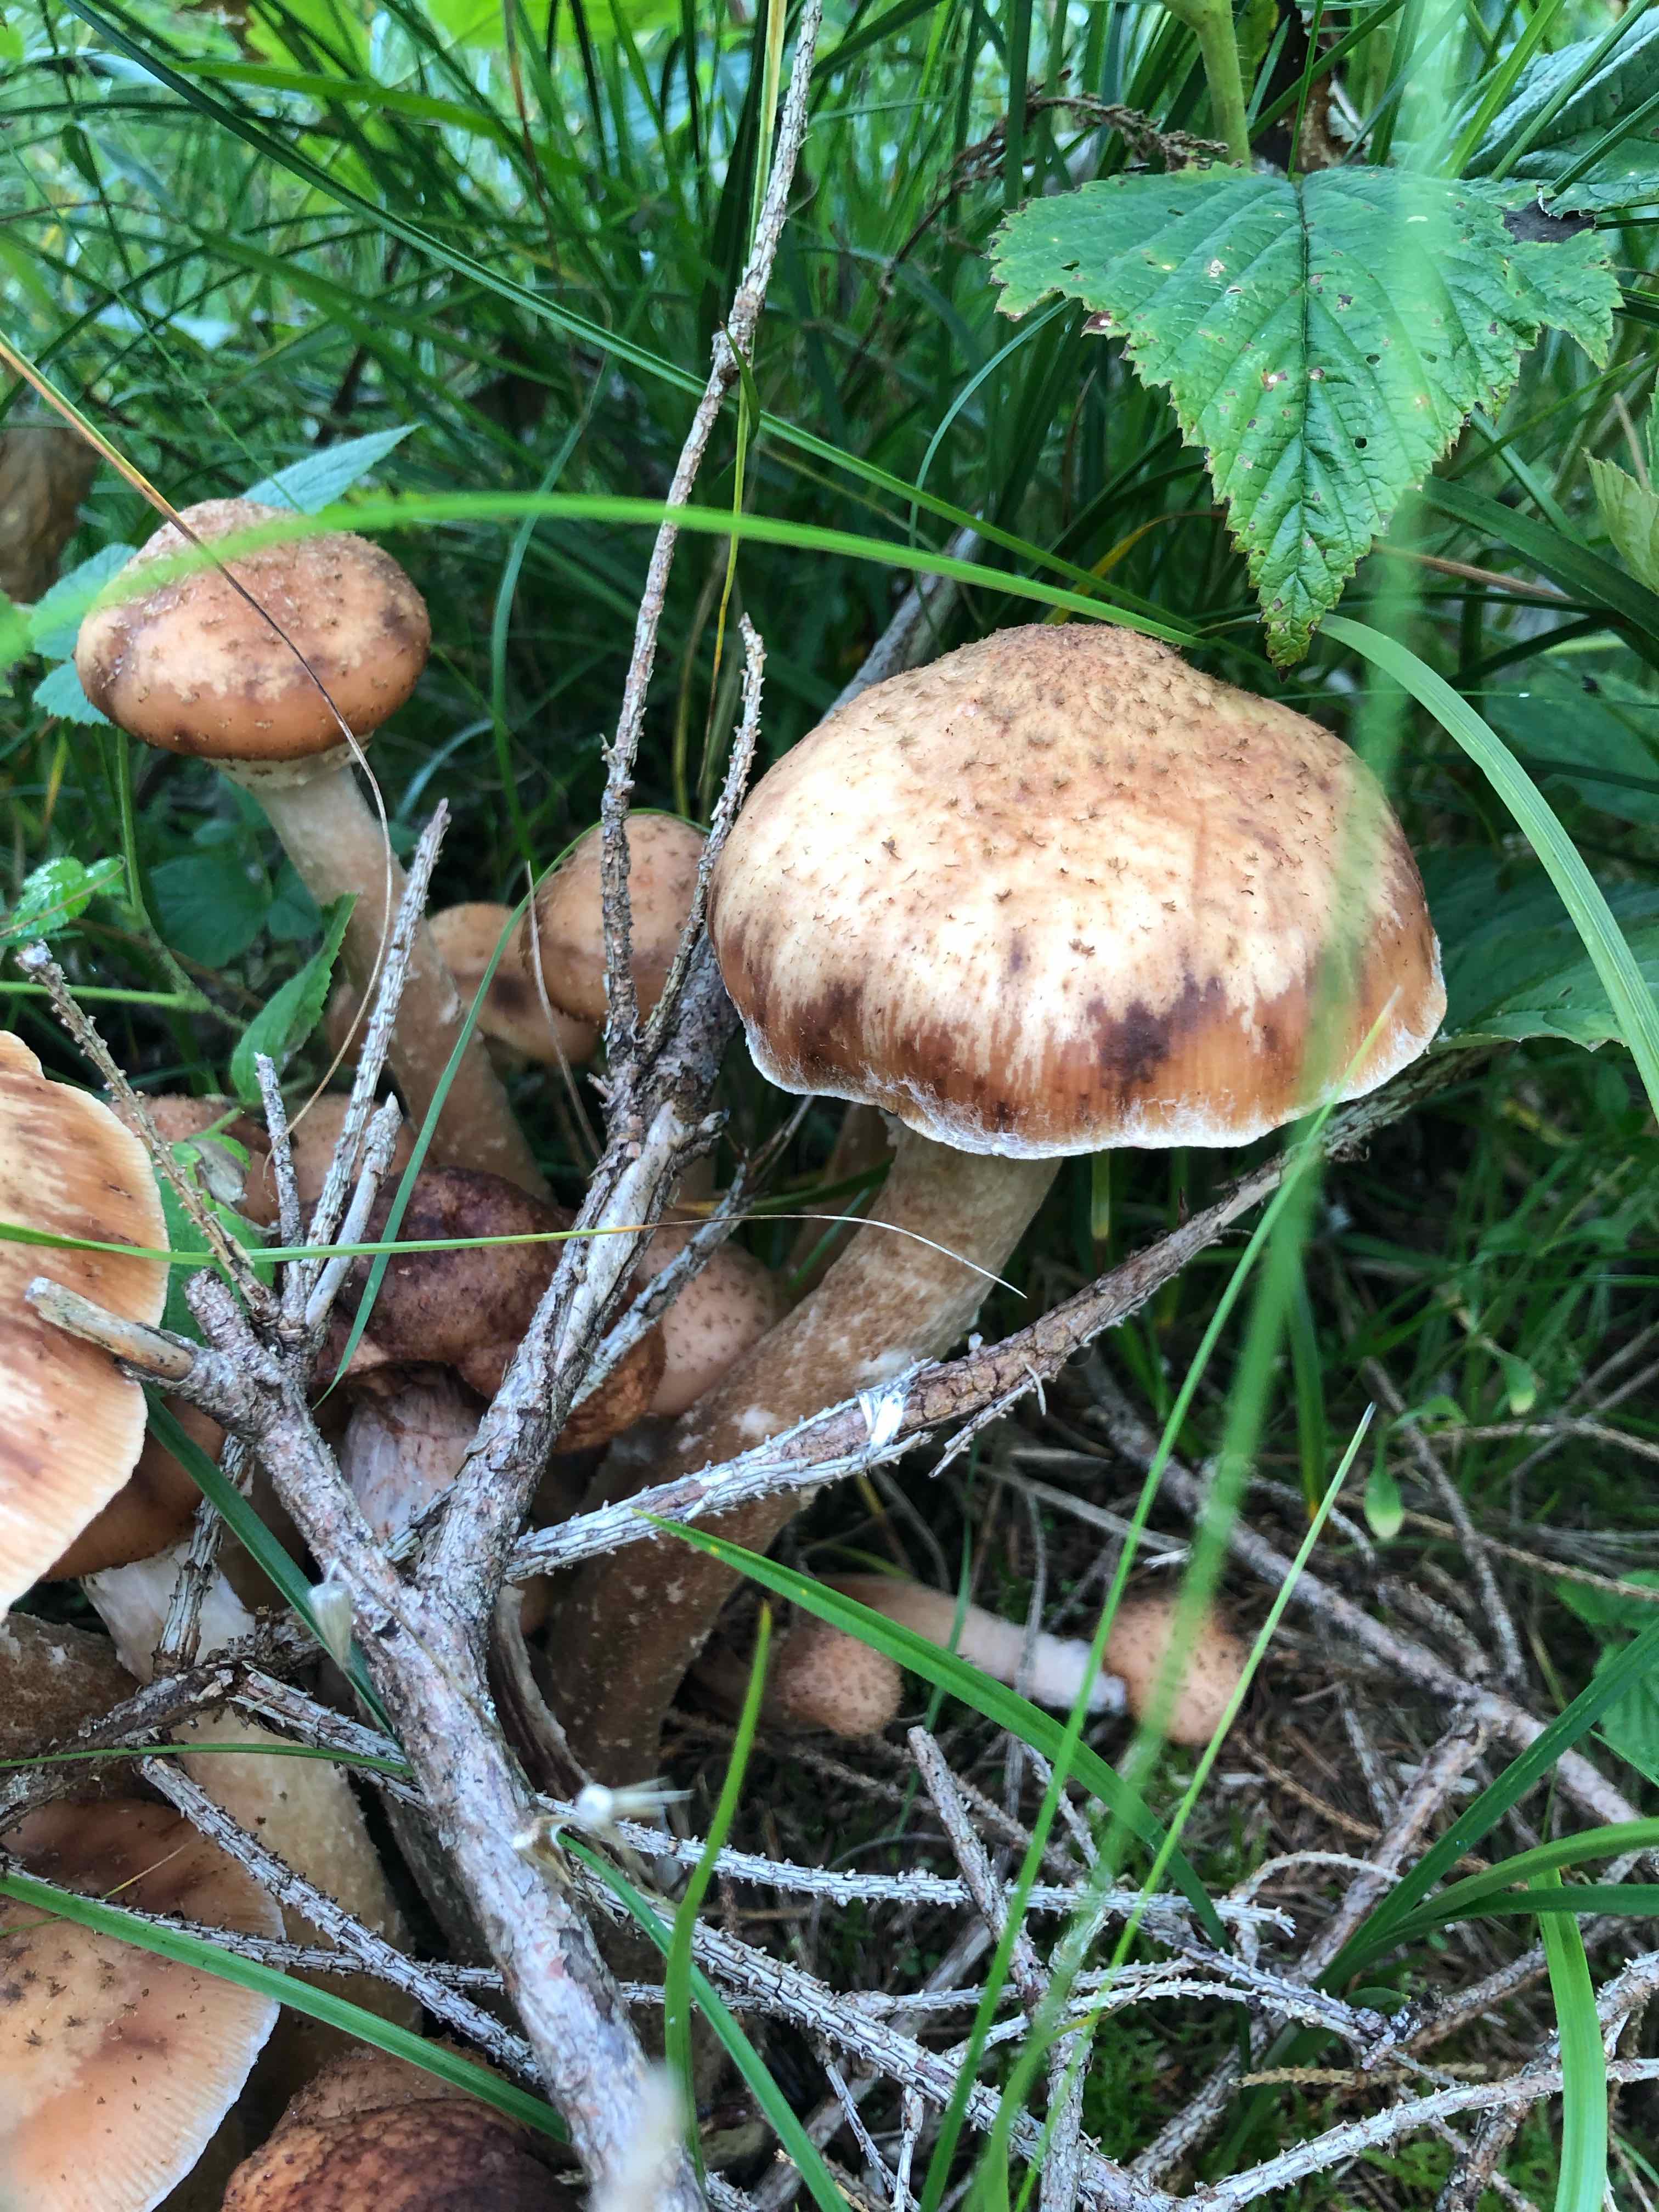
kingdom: Fungi
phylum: Basidiomycota
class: Agaricomycetes
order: Agaricales
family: Physalacriaceae
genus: Armillaria
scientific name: Armillaria ostoyae
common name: mørk honningsvamp
